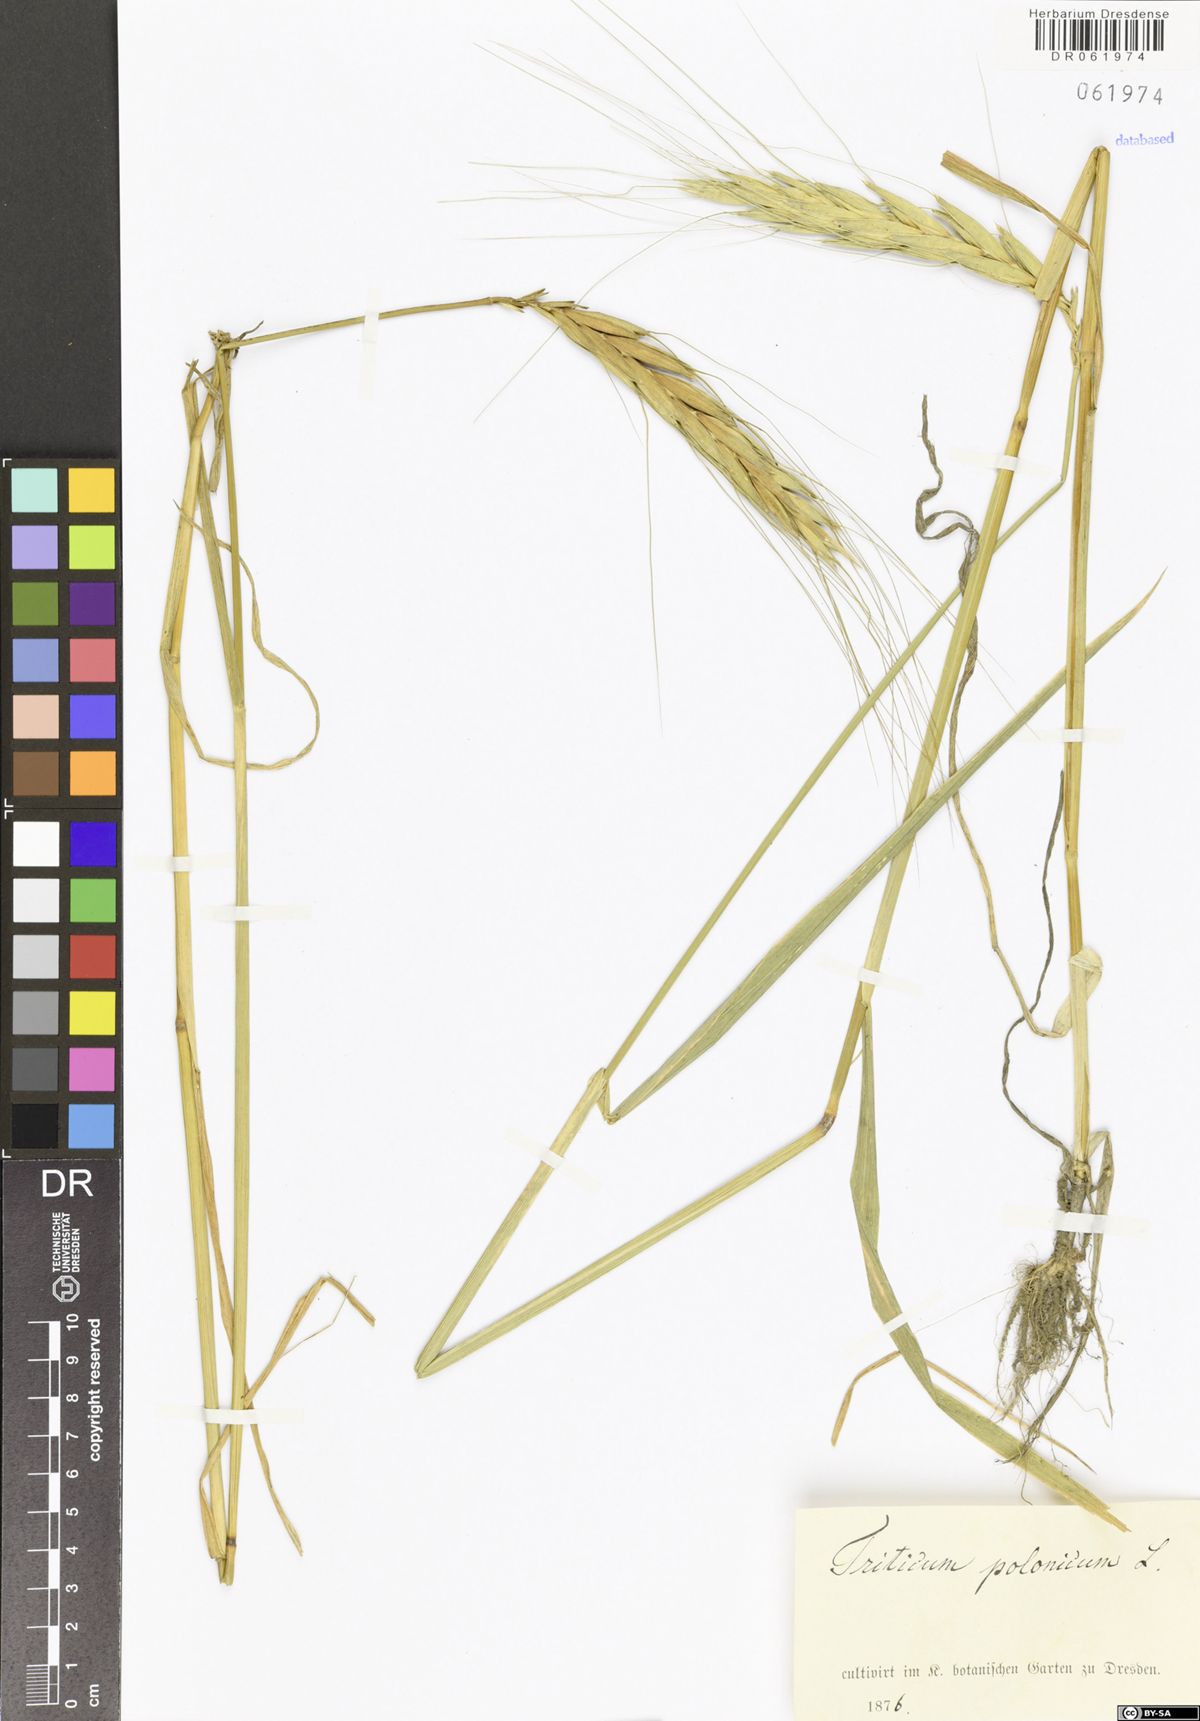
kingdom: Plantae
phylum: Tracheophyta
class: Liliopsida
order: Poales
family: Poaceae
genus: Triticum
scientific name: Triticum turgidum
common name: Rivet wheat
